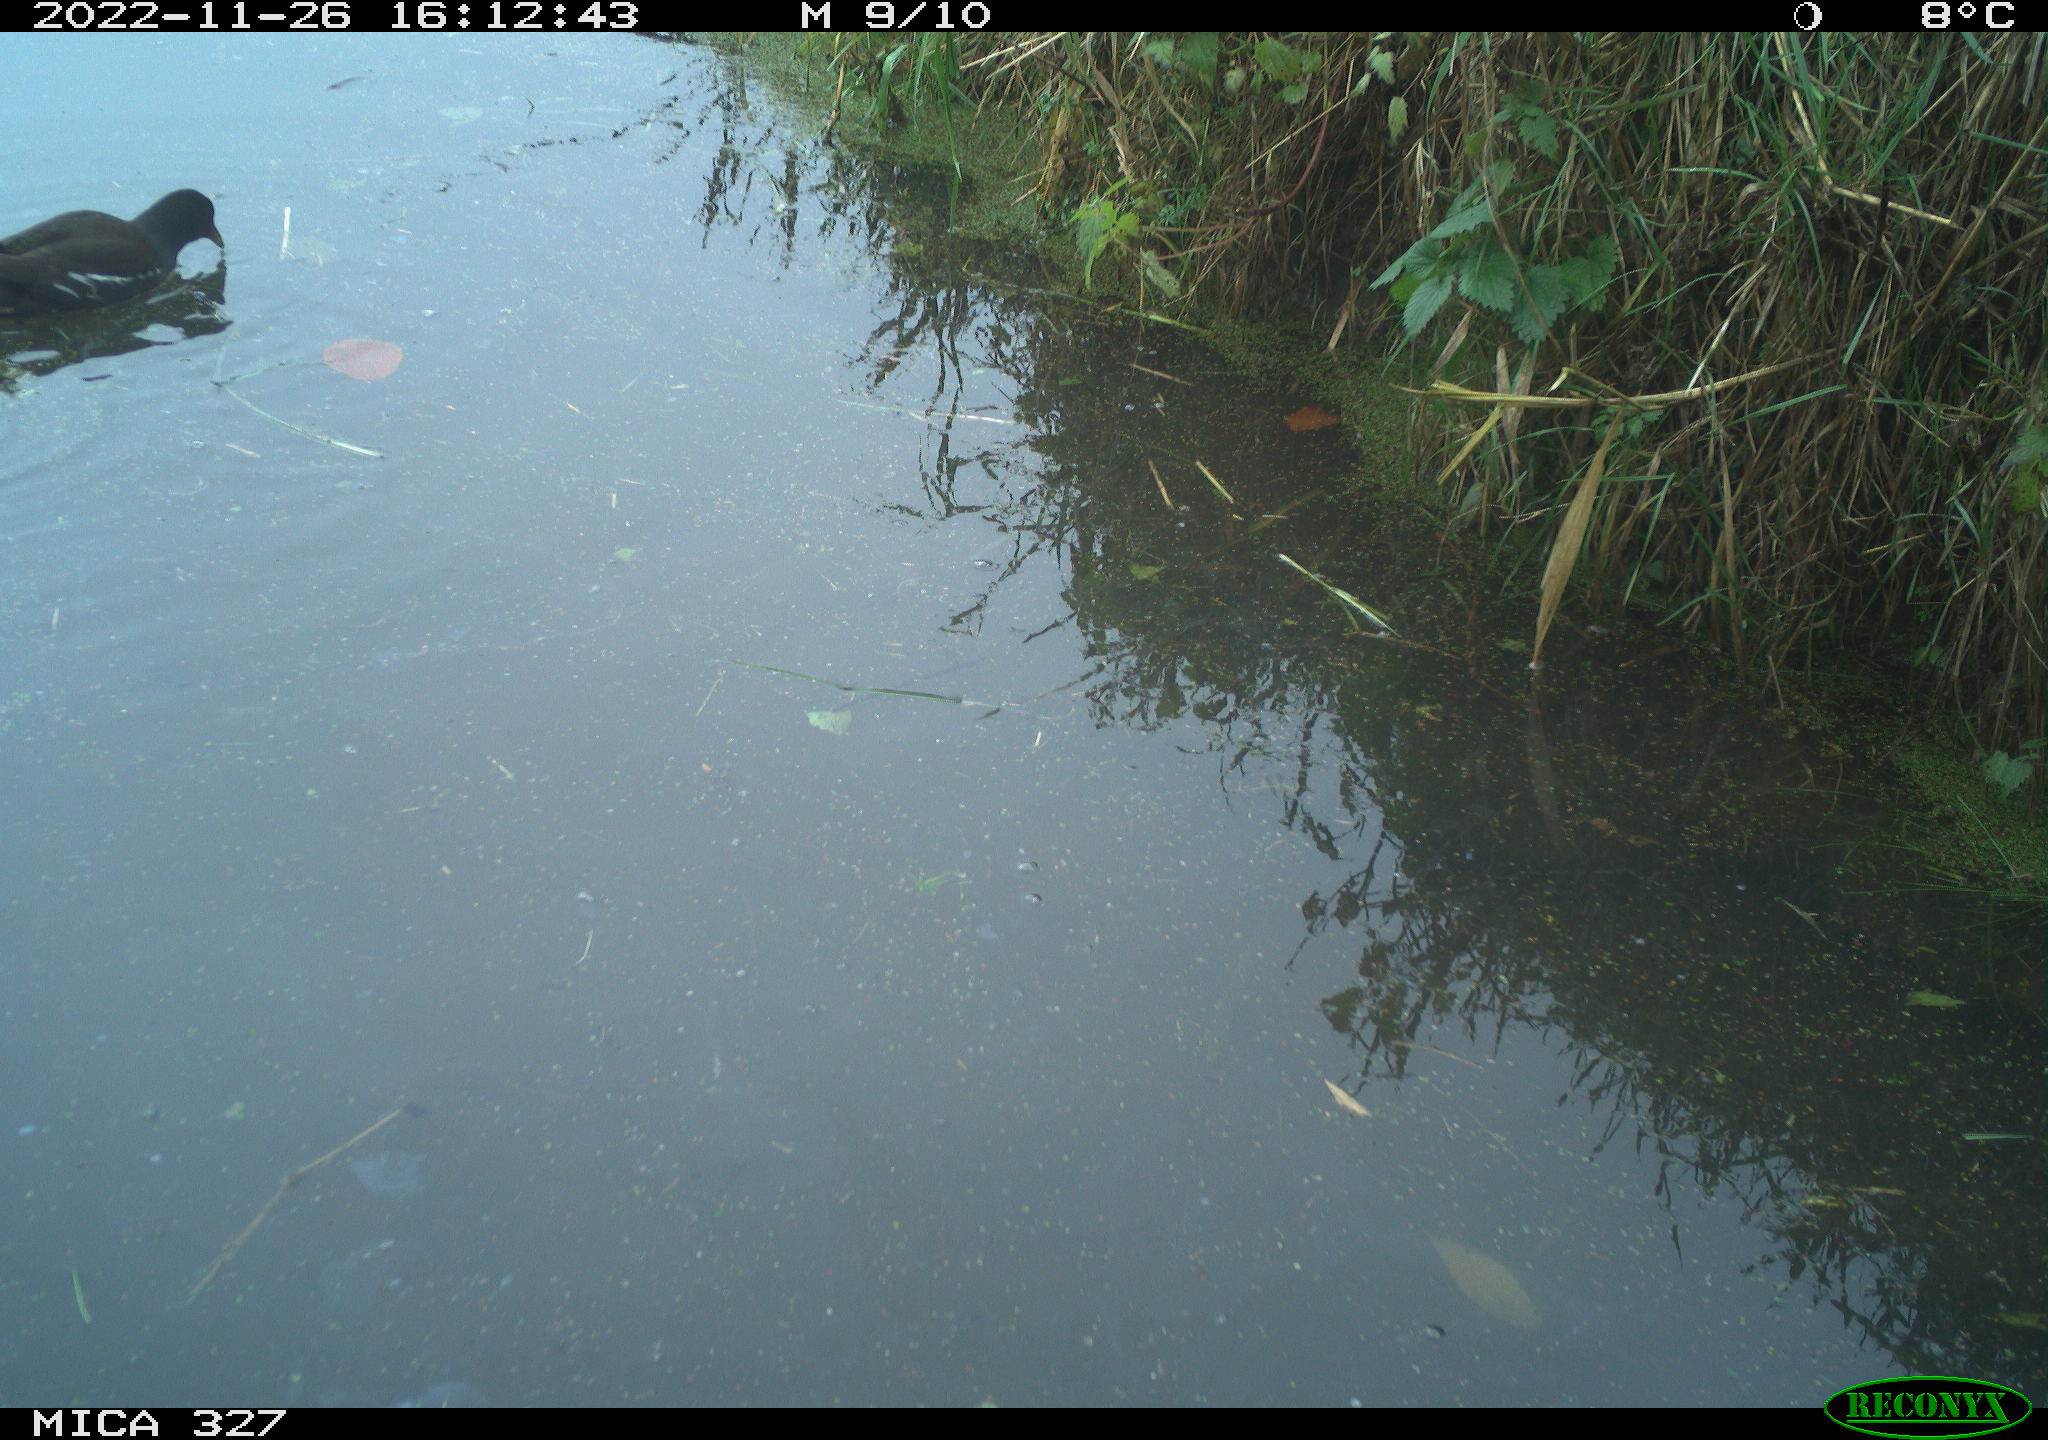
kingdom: Animalia
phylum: Chordata
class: Aves
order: Gruiformes
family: Rallidae
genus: Gallinula
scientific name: Gallinula chloropus
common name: Common moorhen
